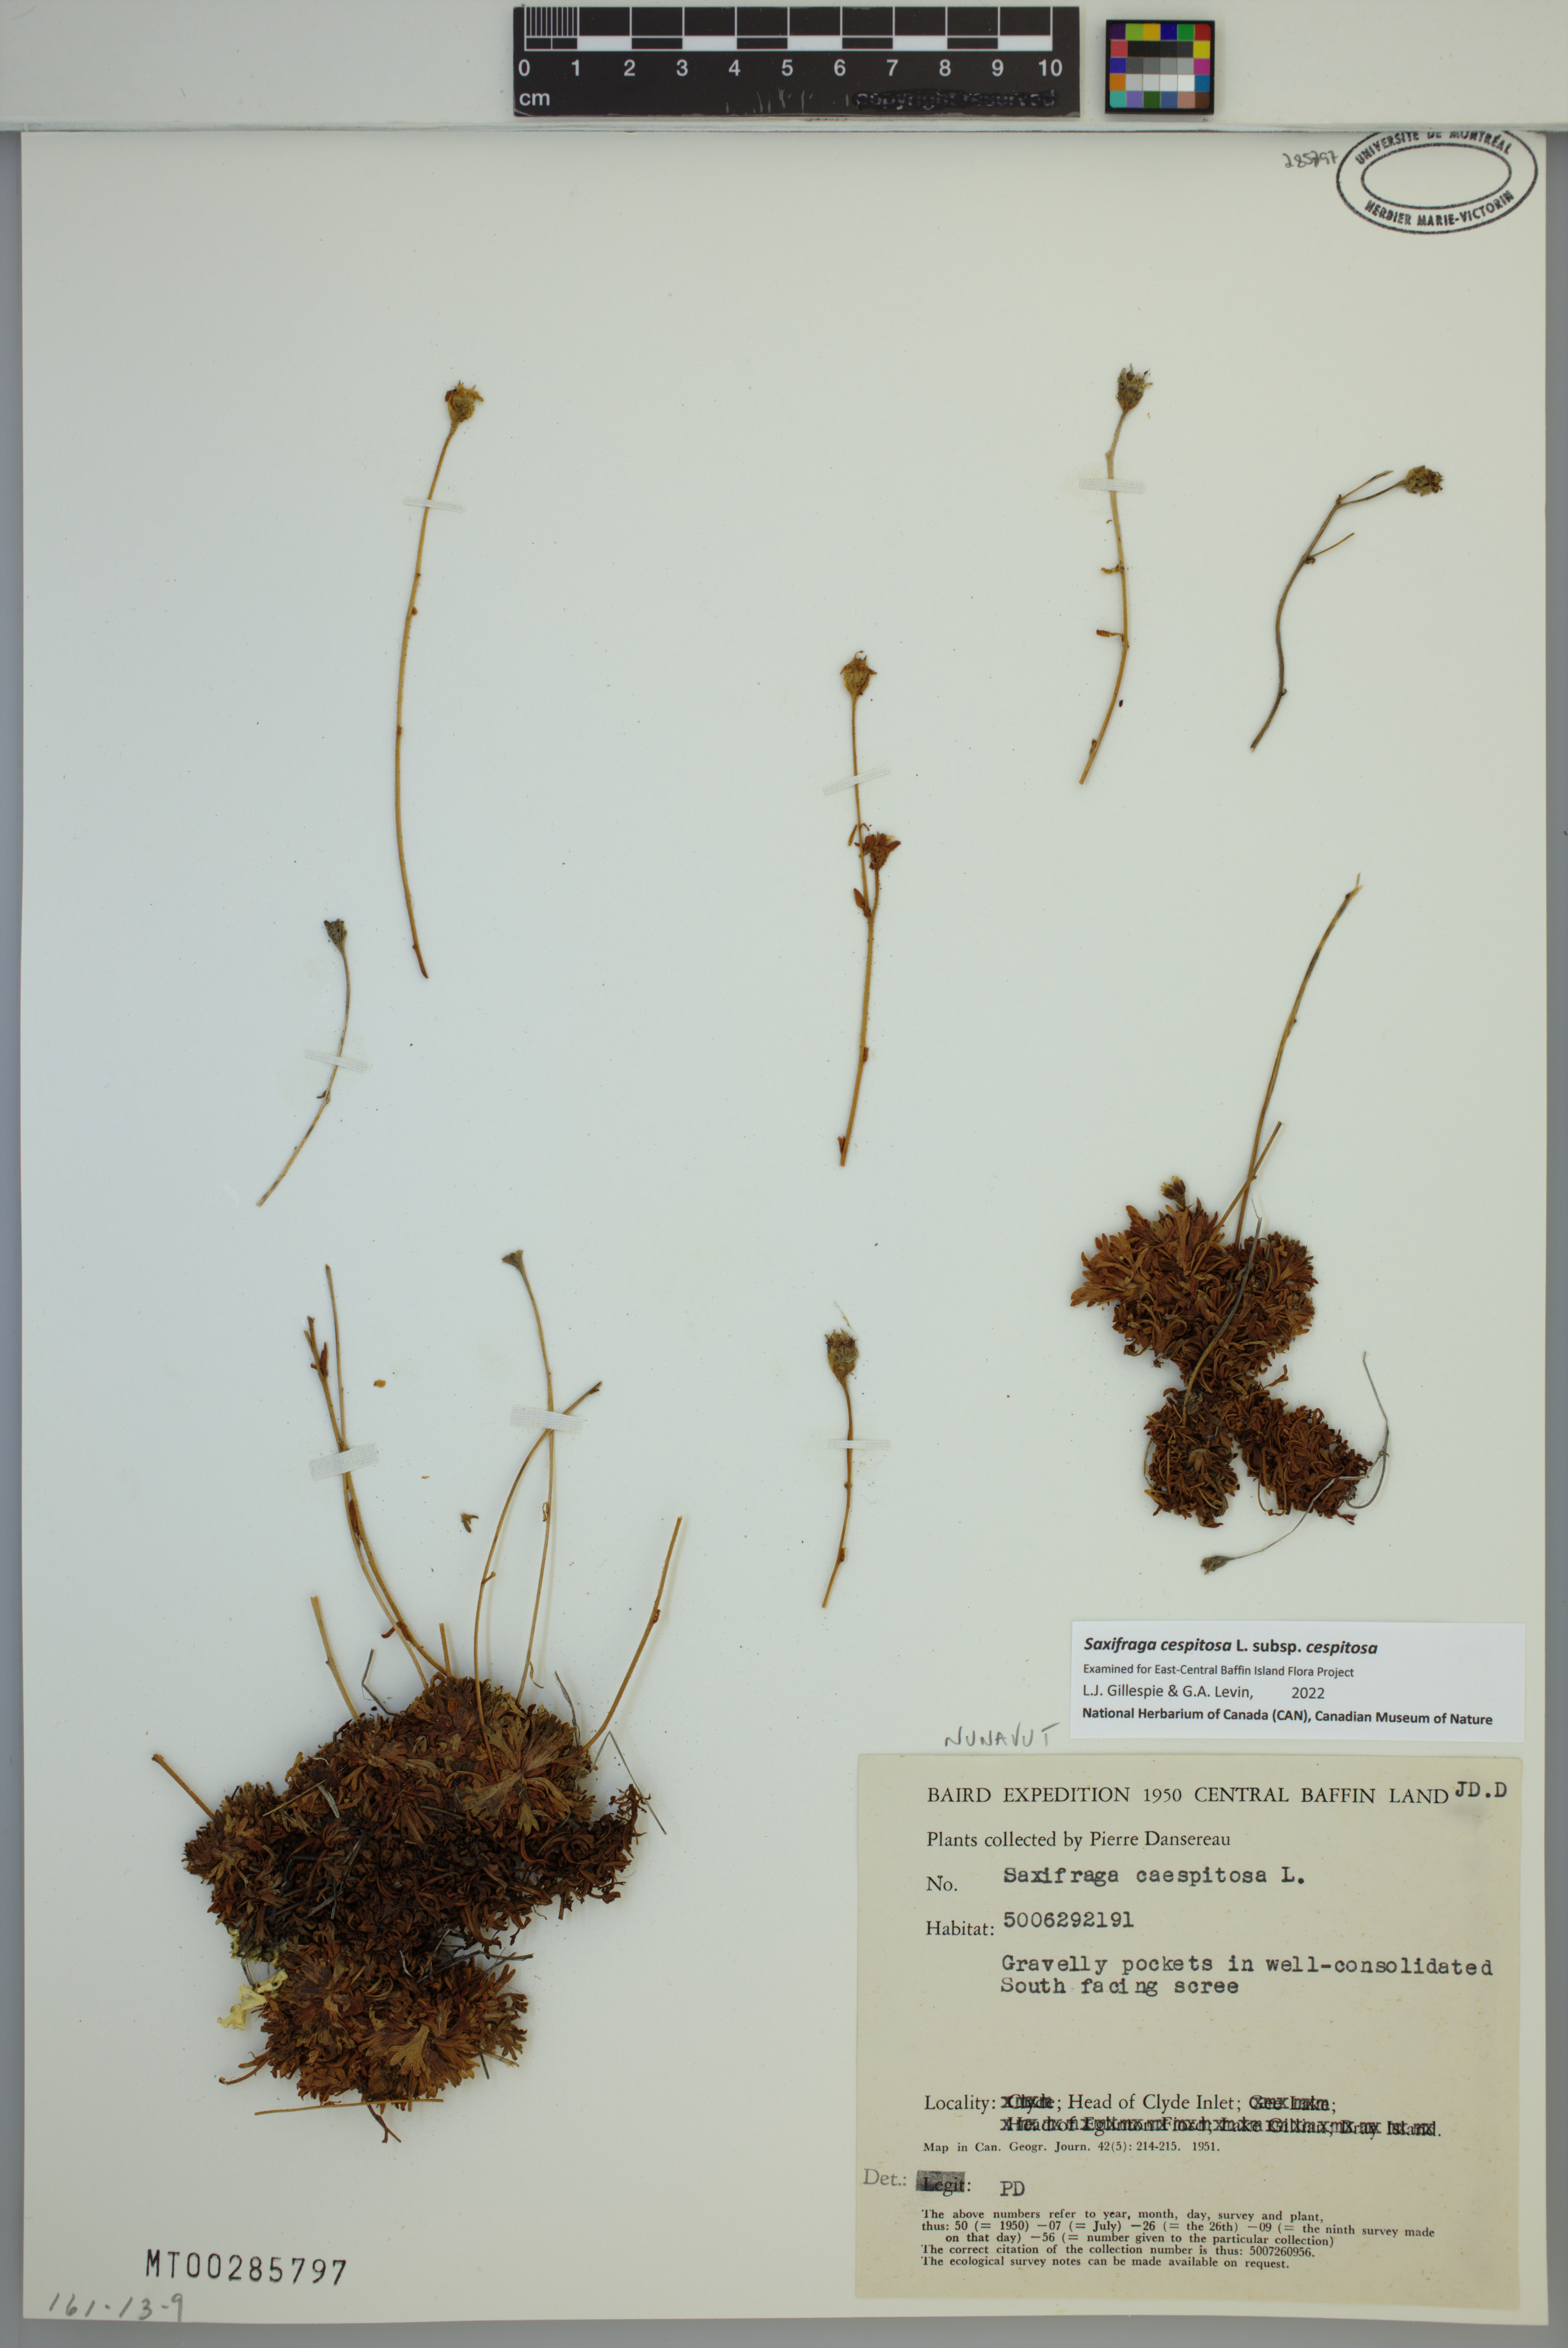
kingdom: Plantae
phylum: Tracheophyta
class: Magnoliopsida
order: Saxifragales
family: Saxifragaceae
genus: Saxifraga
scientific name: Saxifraga cespitosa
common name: Tufted saxifrage
